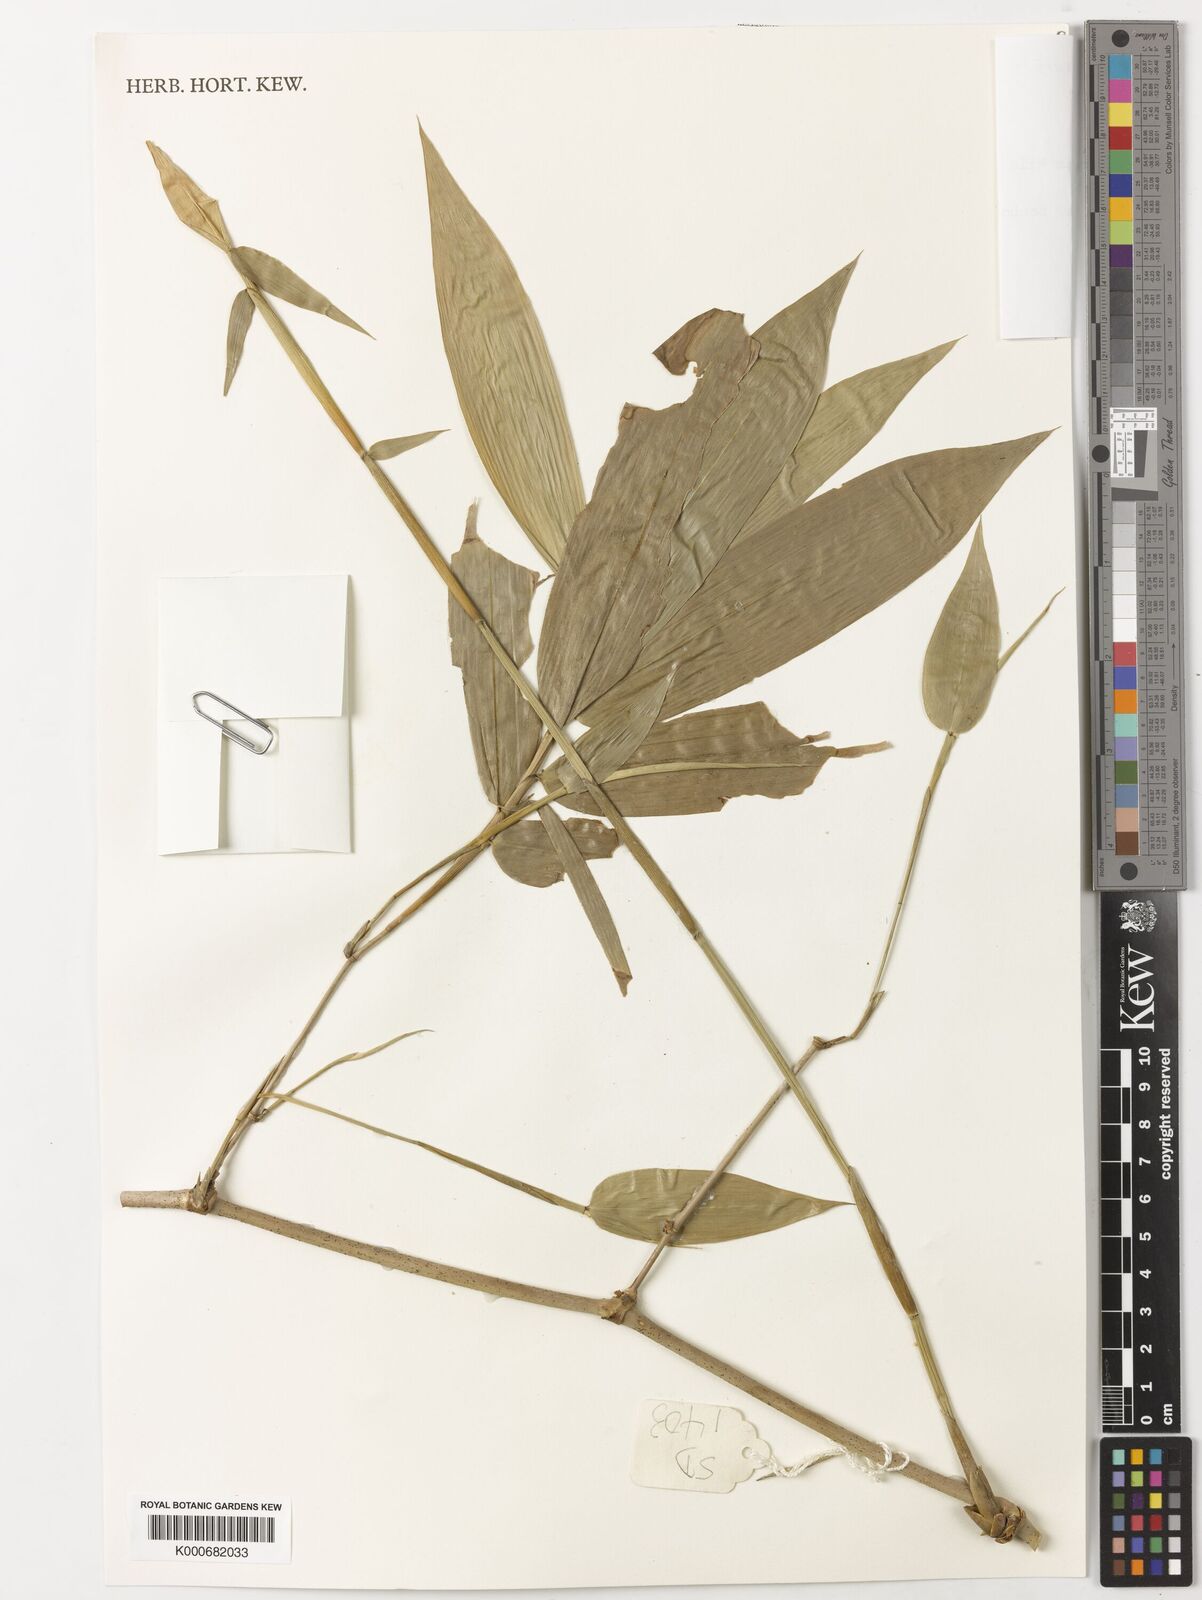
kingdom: Plantae
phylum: Tracheophyta
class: Liliopsida
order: Poales
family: Poaceae
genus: Dinochloa
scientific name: Dinochloa malayana
